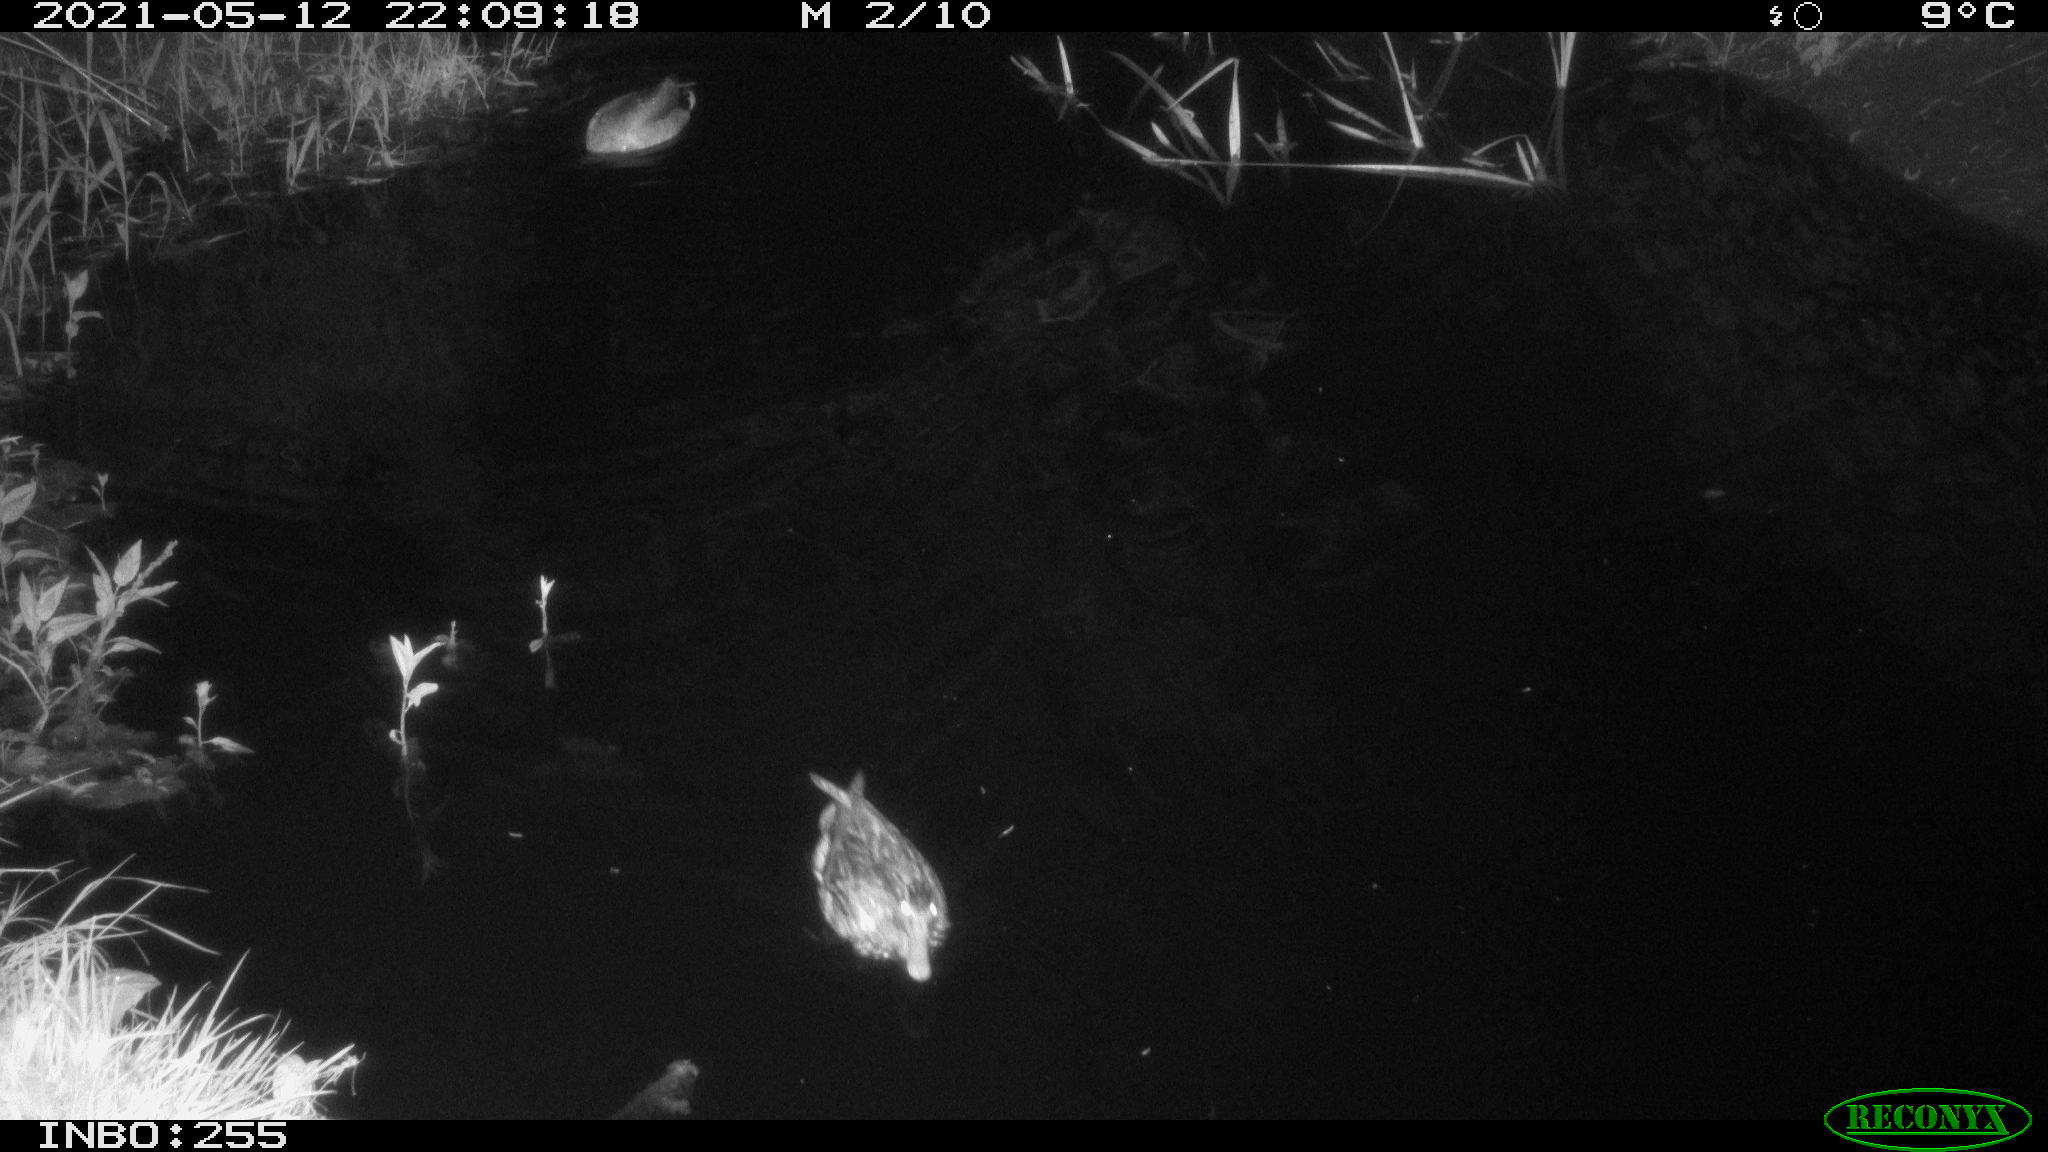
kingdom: Animalia
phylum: Chordata
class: Aves
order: Anseriformes
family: Anatidae
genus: Anas
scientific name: Anas platyrhynchos
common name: Mallard
